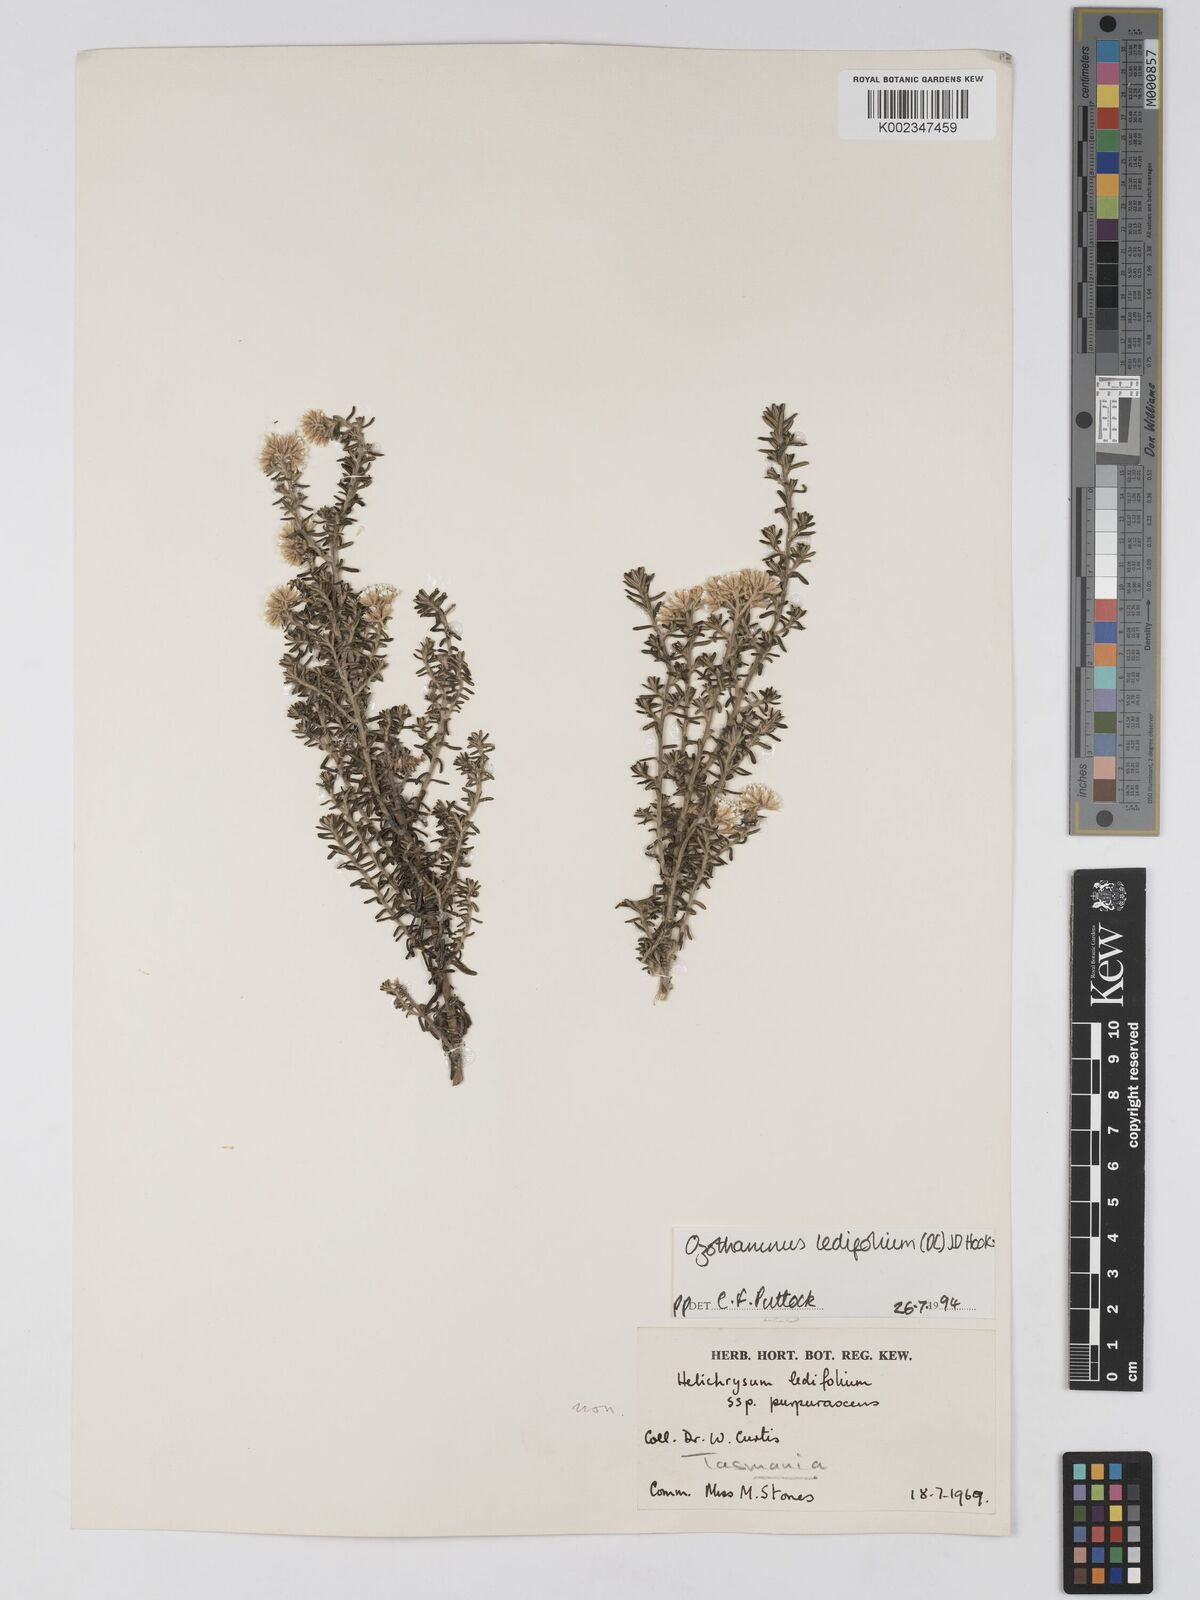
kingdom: Plantae
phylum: Tracheophyta
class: Magnoliopsida
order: Asterales
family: Asteraceae
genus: Ozothamnus
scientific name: Ozothamnus ledifolius
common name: Kerosene-weed
